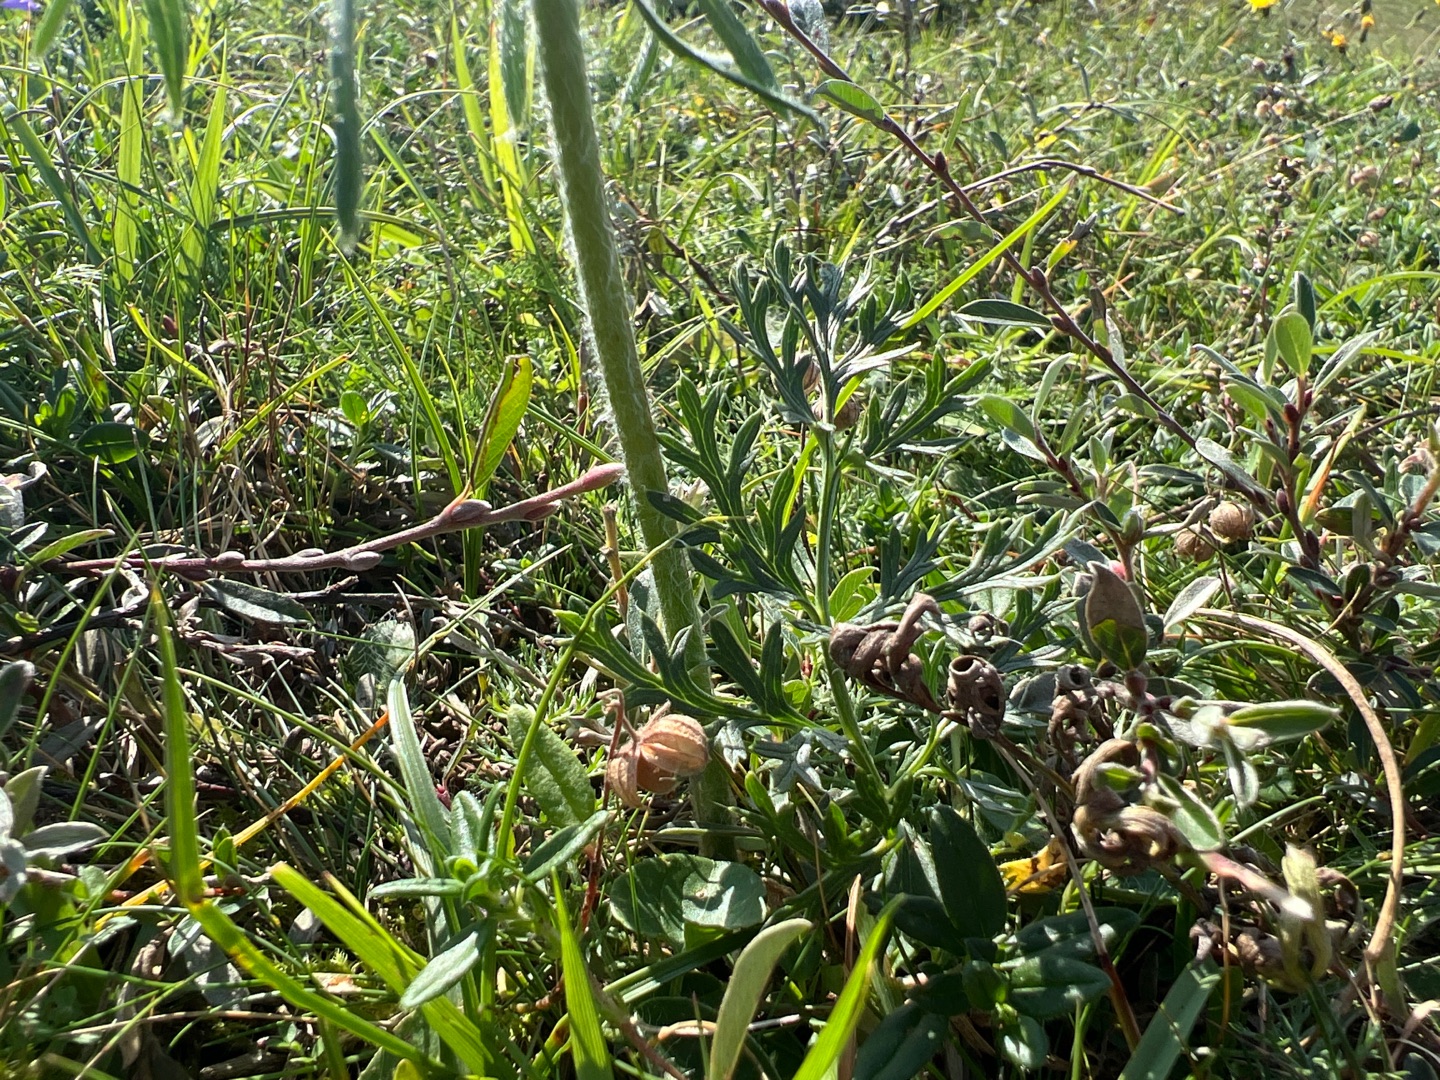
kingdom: Plantae
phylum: Tracheophyta
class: Magnoliopsida
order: Ranunculales
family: Ranunculaceae
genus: Pulsatilla
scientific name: Pulsatilla pratensis
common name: Nikkende kobjælde
